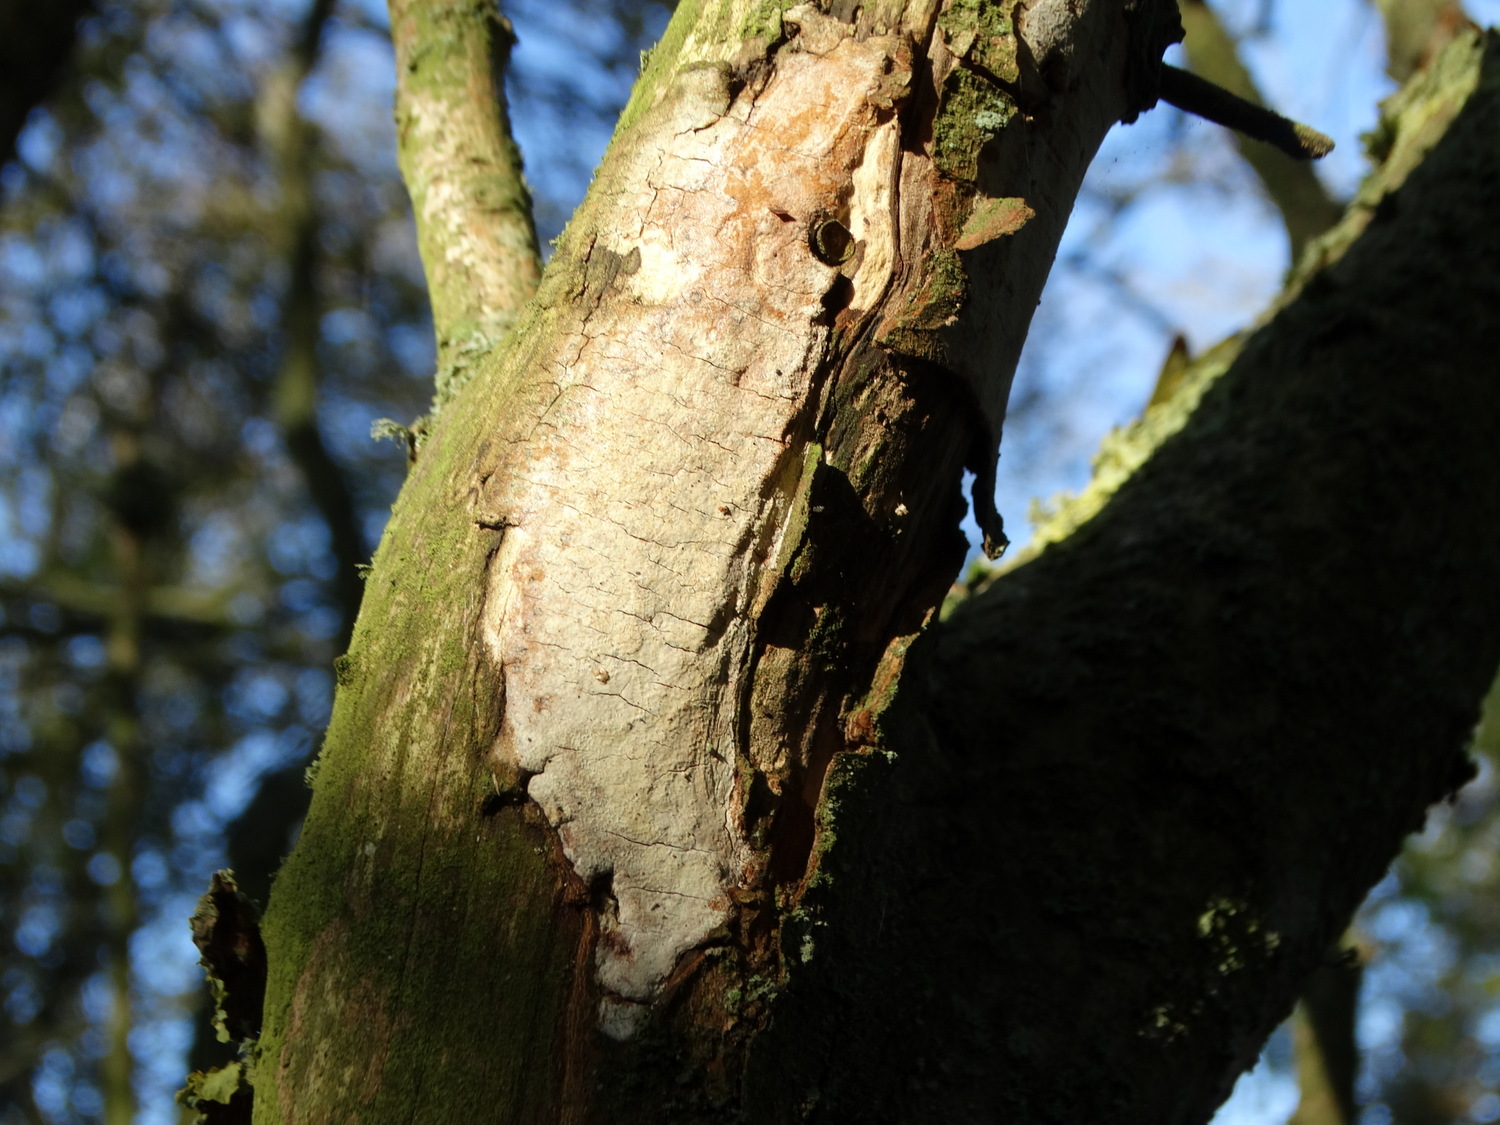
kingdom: Fungi
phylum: Basidiomycota
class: Agaricomycetes
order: Corticiales
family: Vuilleminiaceae
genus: Vuilleminia
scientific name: Vuilleminia cystidiata
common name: tjørne-barksprænger
